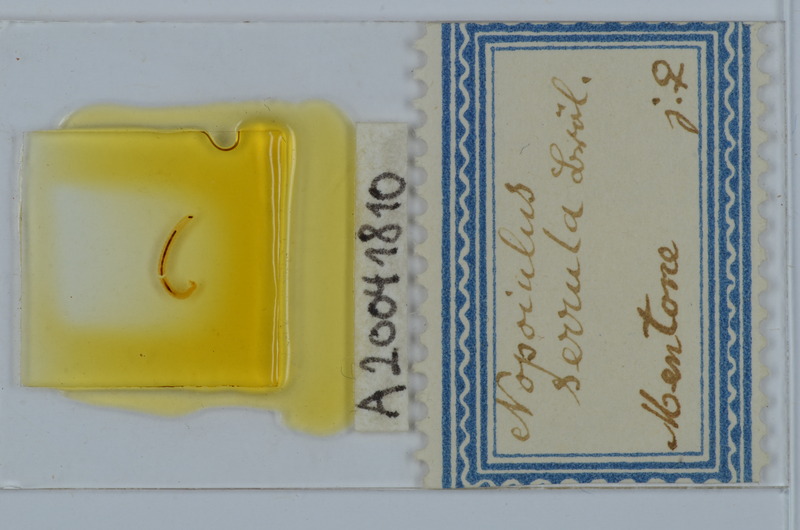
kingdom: Animalia
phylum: Arthropoda
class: Diplopoda
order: Julida
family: Blaniulidae
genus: Nopoiulus
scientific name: Nopoiulus
